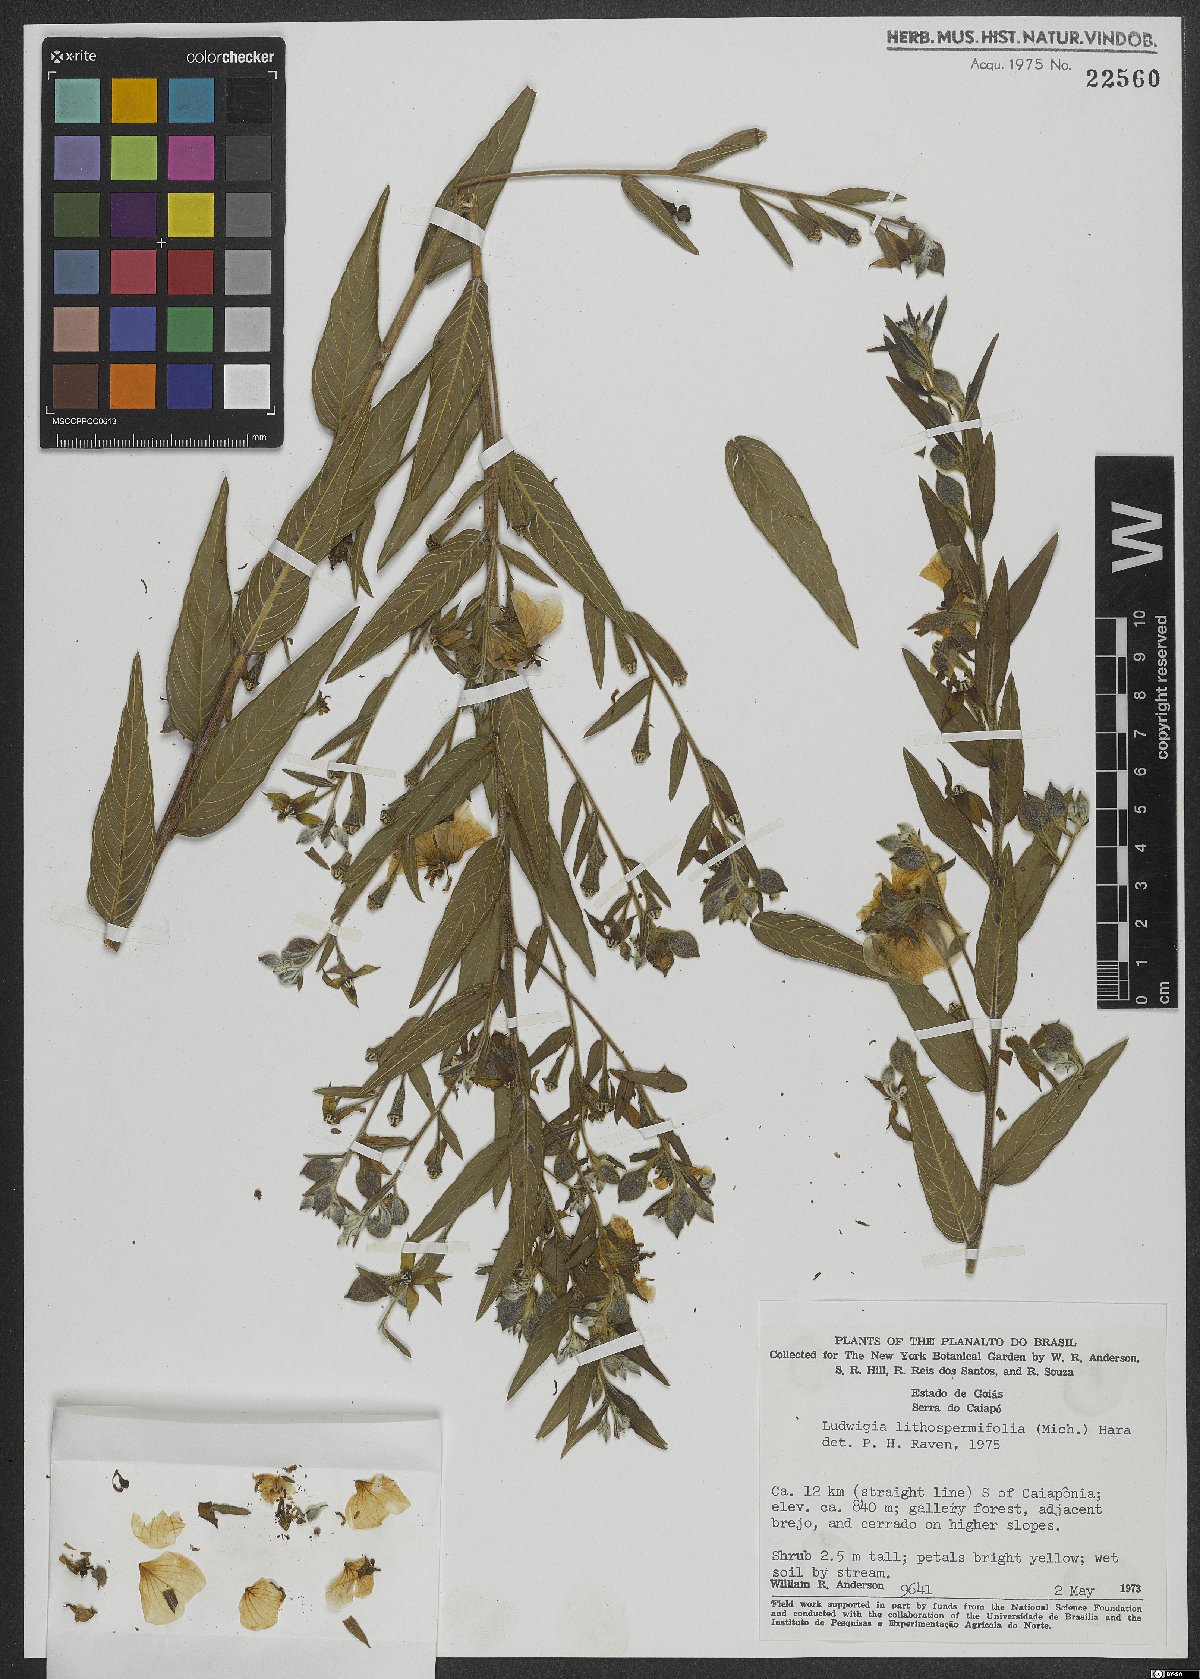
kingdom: Plantae
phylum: Tracheophyta
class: Magnoliopsida
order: Myrtales
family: Onagraceae
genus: Ludwigia
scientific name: Ludwigia rigida
